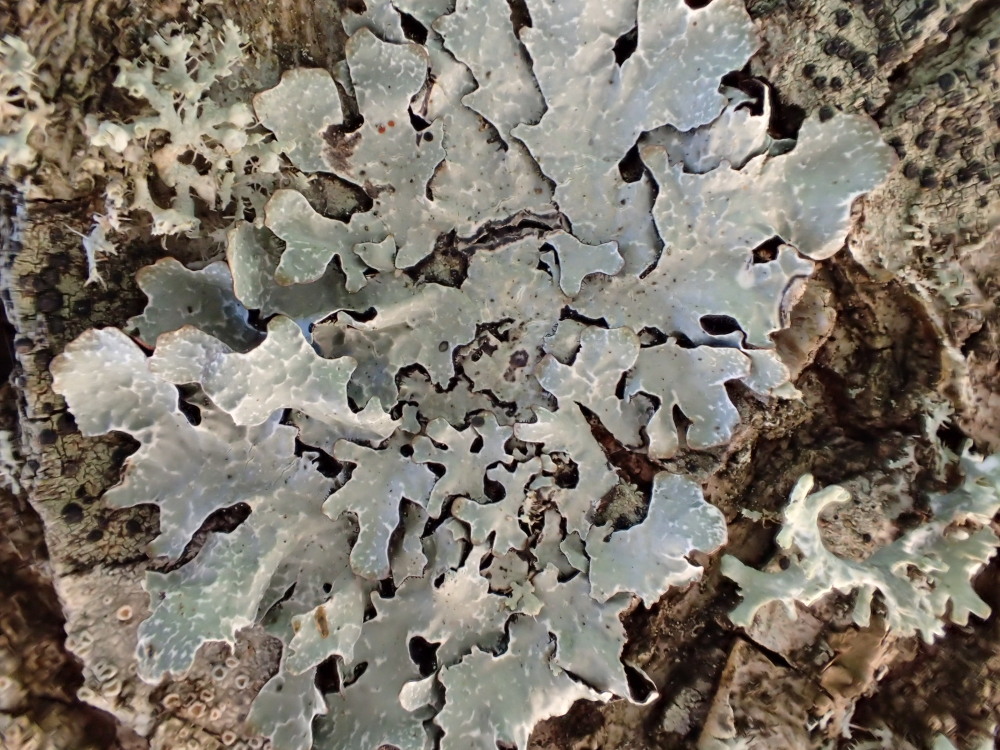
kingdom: Fungi
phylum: Ascomycota
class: Lecanoromycetes
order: Lecanorales
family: Parmeliaceae
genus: Parmelia
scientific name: Parmelia sulcata
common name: rynket skållav
